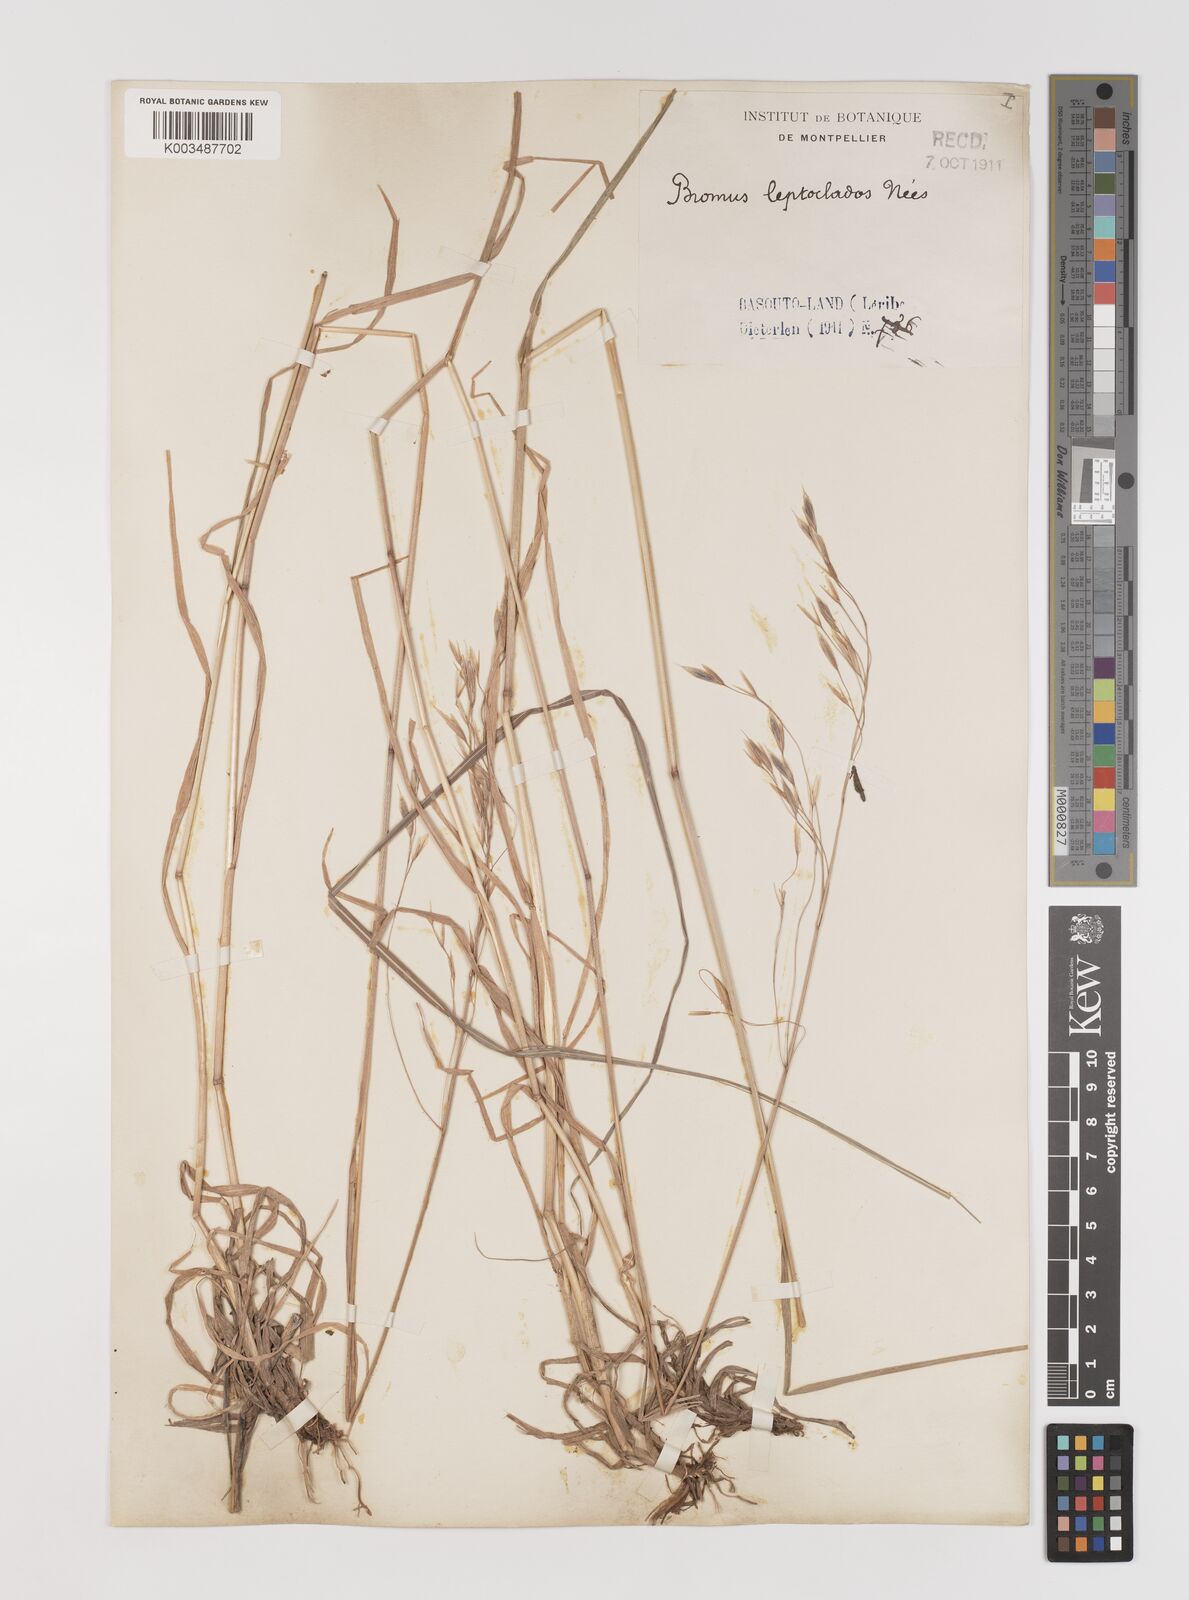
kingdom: Plantae
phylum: Tracheophyta
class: Liliopsida
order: Poales
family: Poaceae
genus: Bromus
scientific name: Bromus leptoclados
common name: Mountain bromegrass
